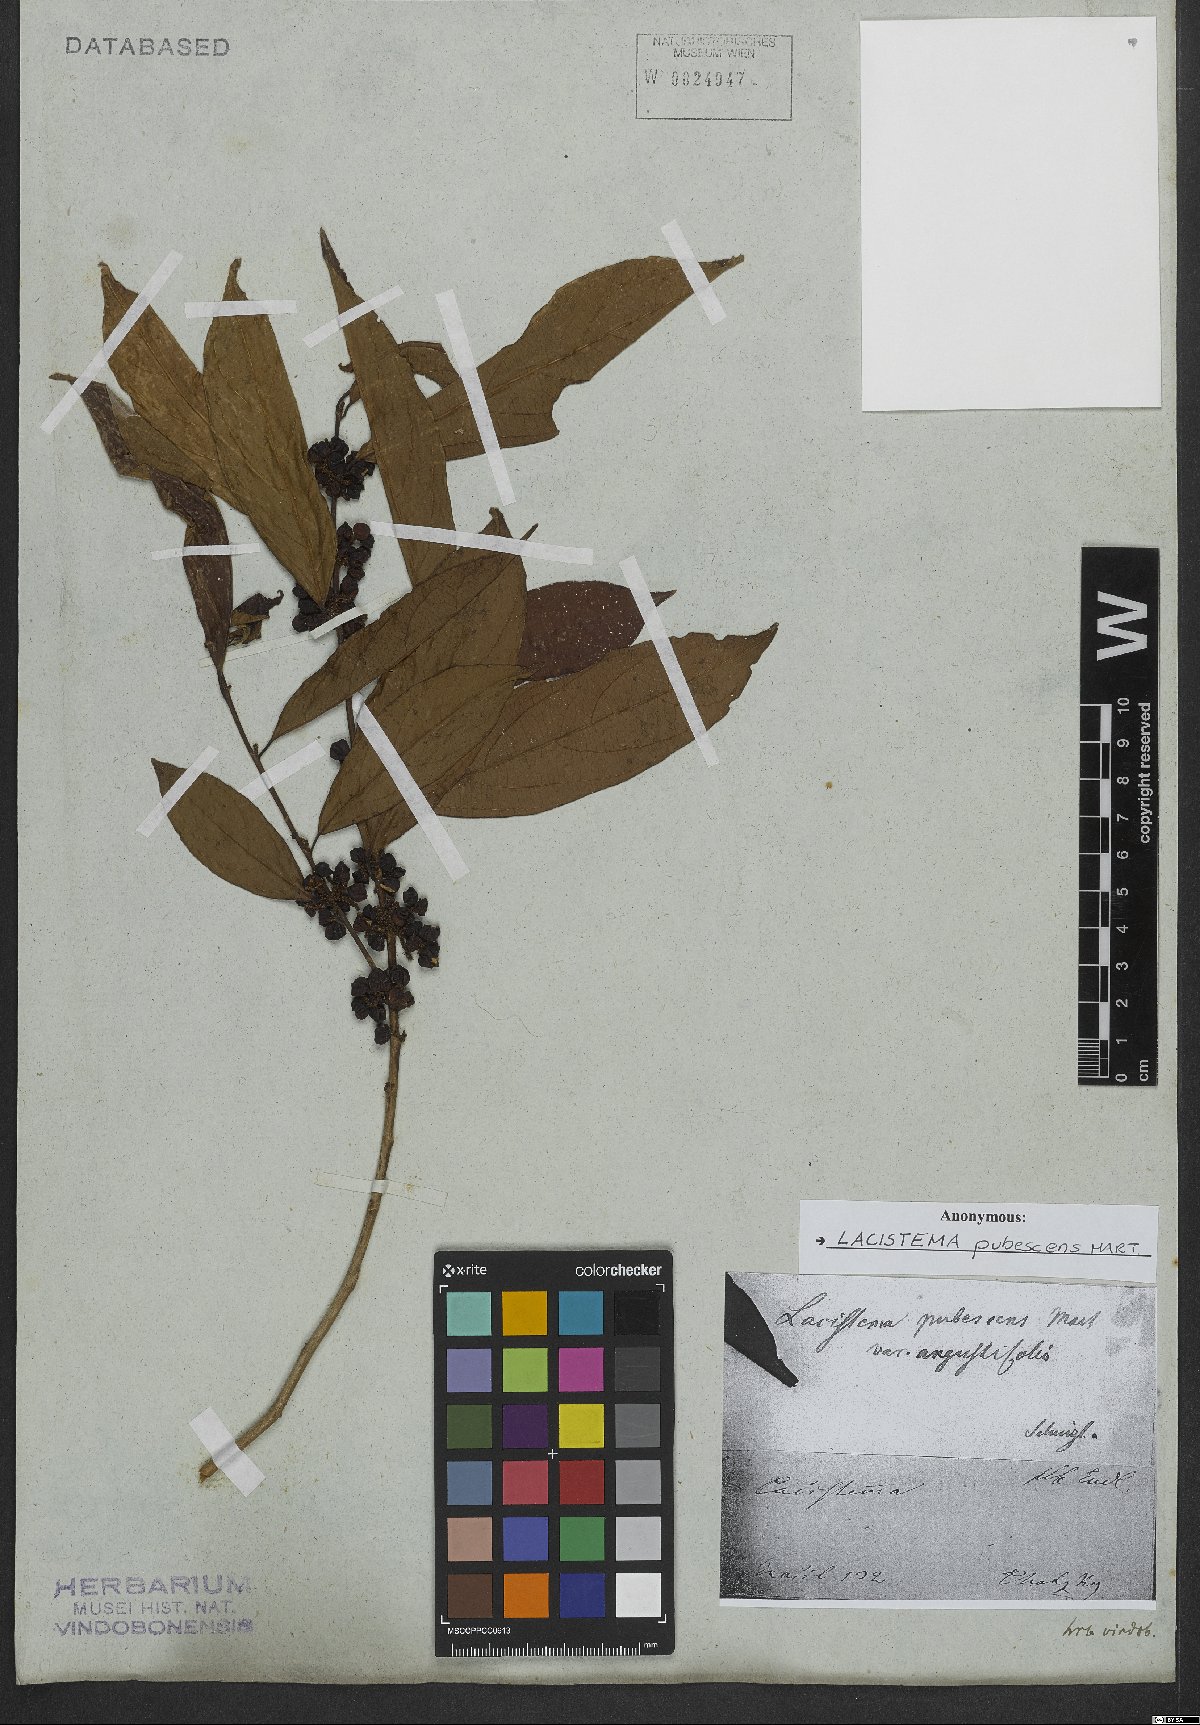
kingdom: Plantae
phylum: Tracheophyta
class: Magnoliopsida
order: Malpighiales
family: Lacistemataceae
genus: Lacistema
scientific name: Lacistema pubescens
